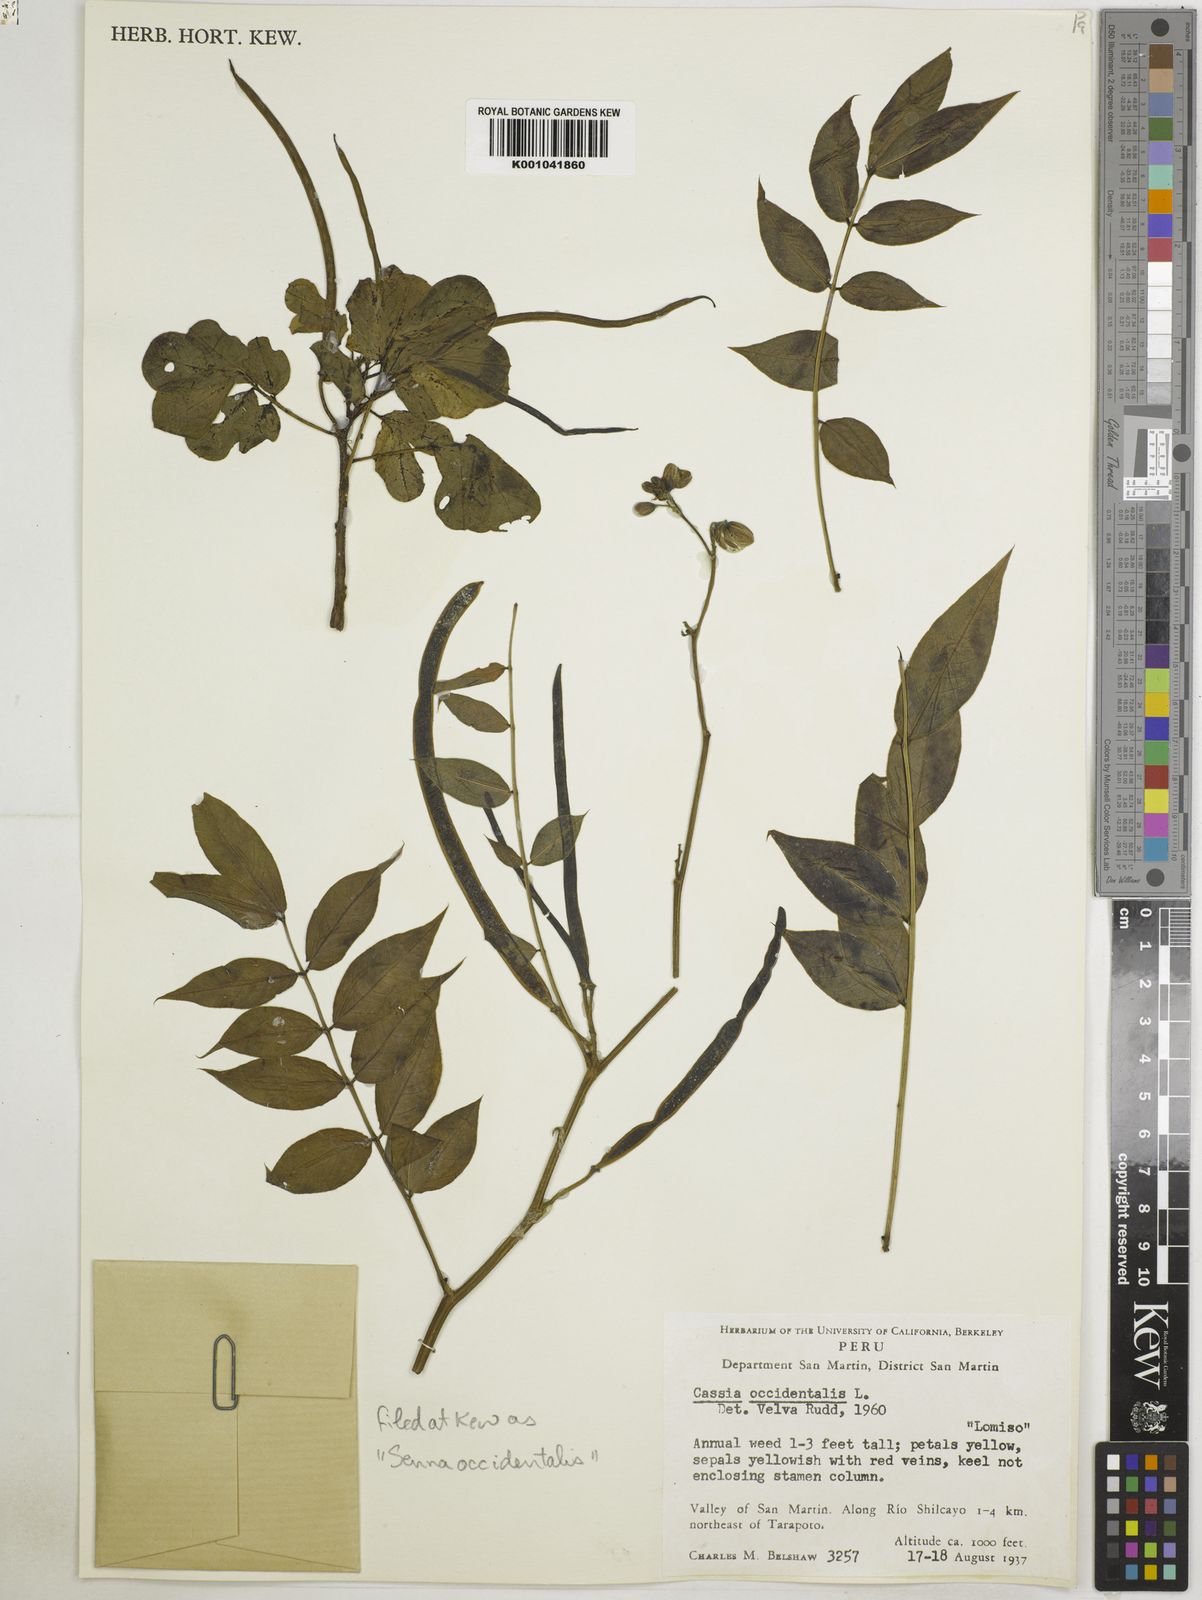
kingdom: Plantae
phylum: Tracheophyta
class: Magnoliopsida
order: Fabales
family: Fabaceae
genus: Senna
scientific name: Senna occidentalis
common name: Septicweed
